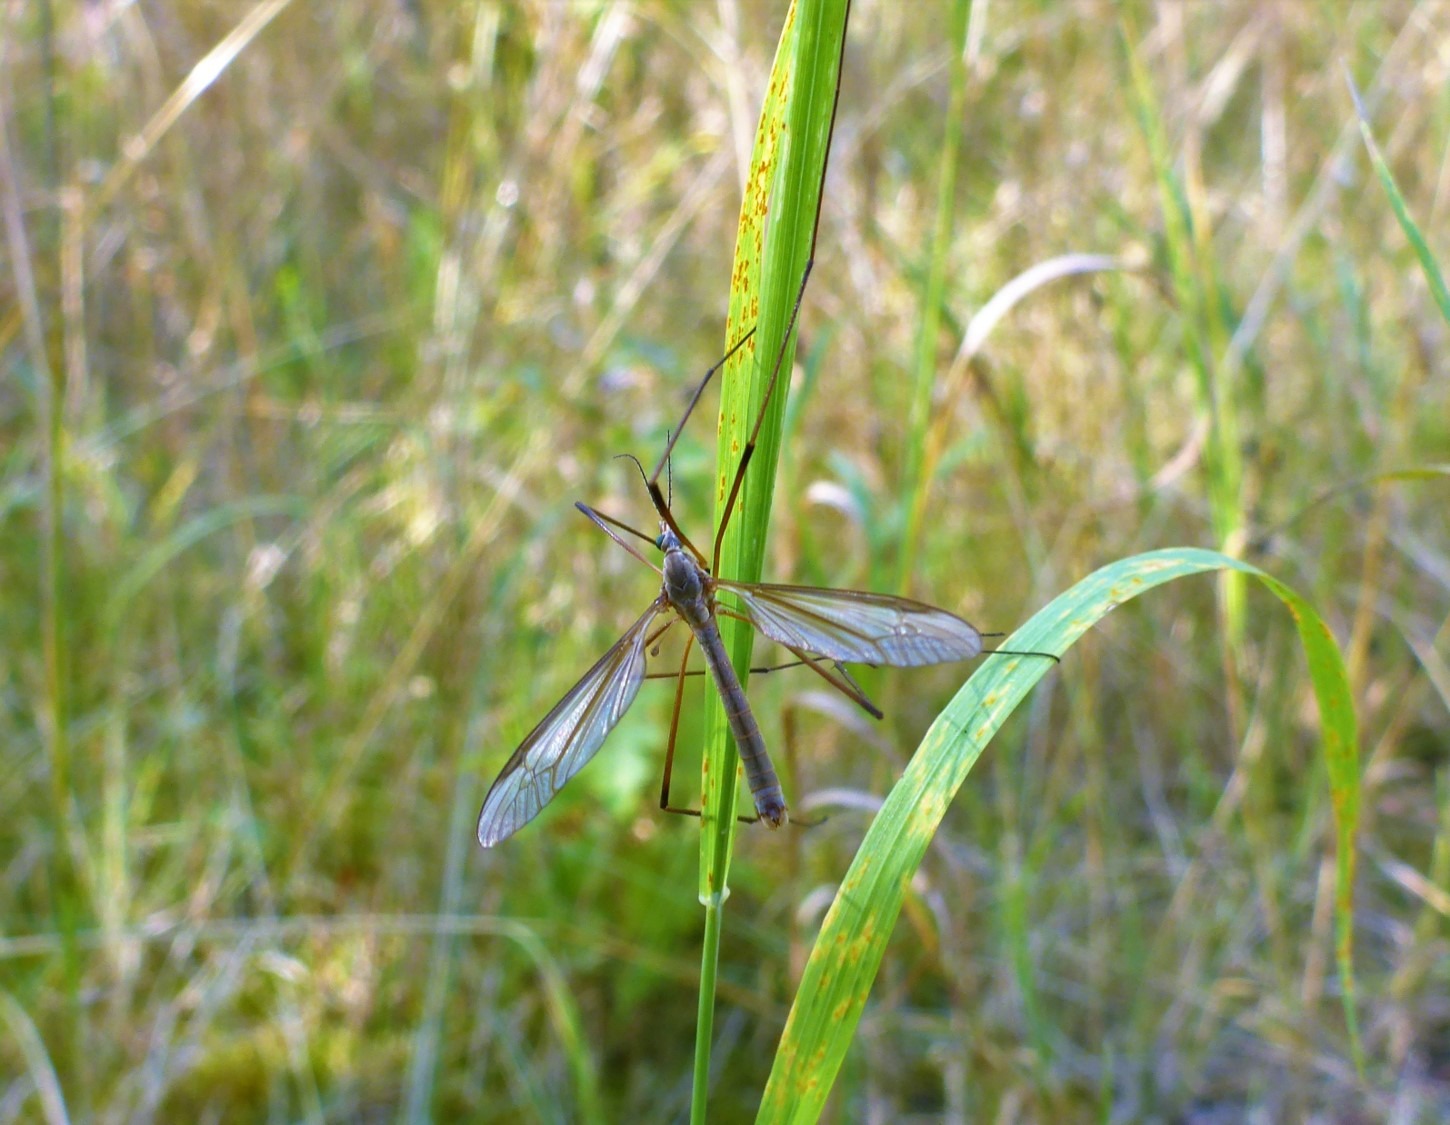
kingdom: Animalia
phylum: Arthropoda
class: Insecta
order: Diptera
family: Tipulidae
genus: Tipula
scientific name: Tipula paludosa
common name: Mosestankelben
